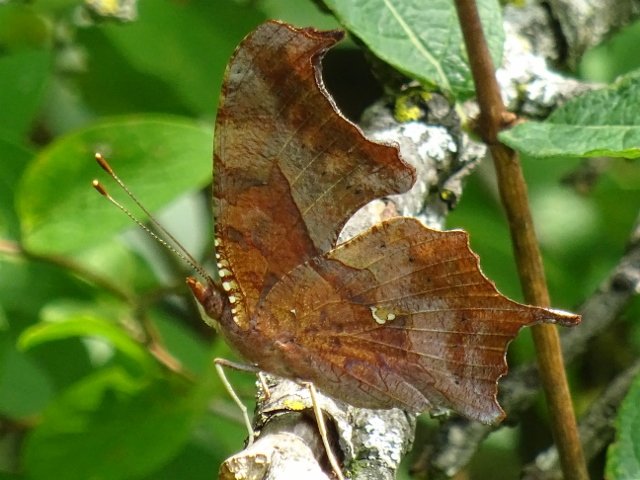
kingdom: Animalia
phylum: Arthropoda
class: Insecta
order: Lepidoptera
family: Nymphalidae
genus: Polygonia
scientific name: Polygonia interrogationis
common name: Question Mark
